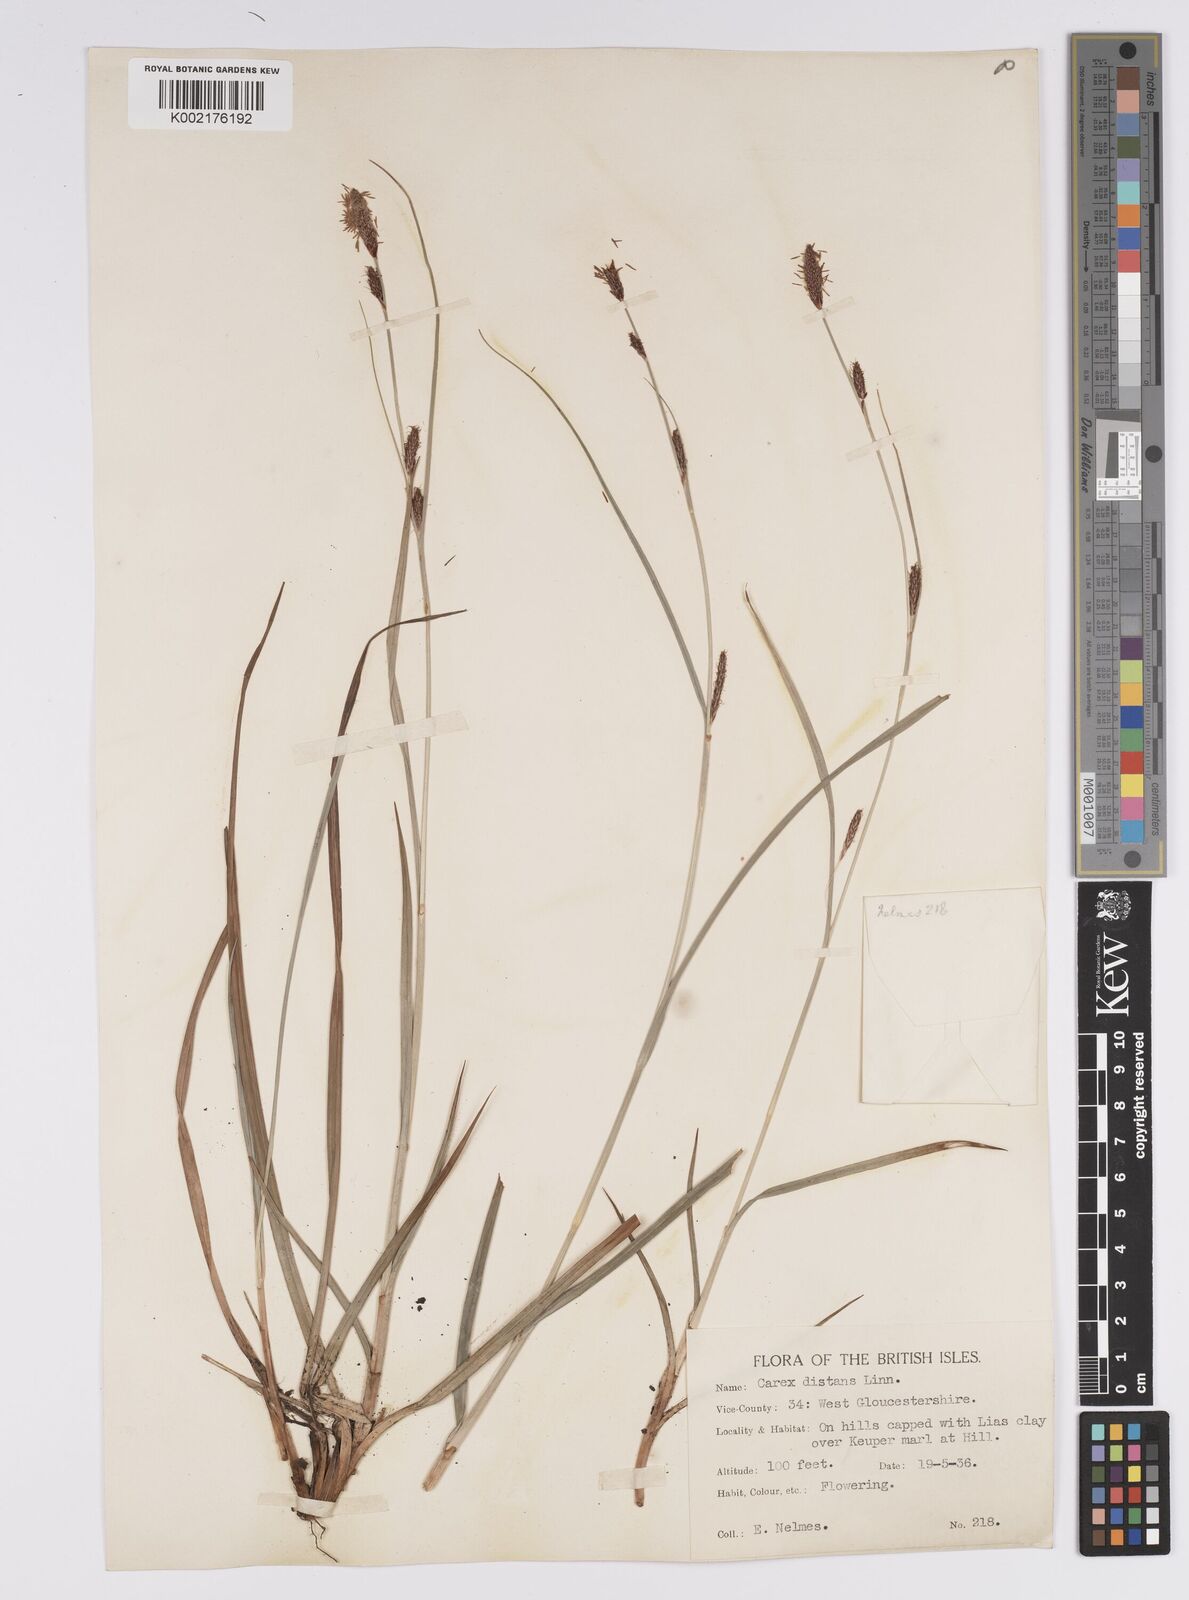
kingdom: Plantae
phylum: Tracheophyta
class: Liliopsida
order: Poales
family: Cyperaceae
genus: Carex
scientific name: Carex distans
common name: Distant sedge
